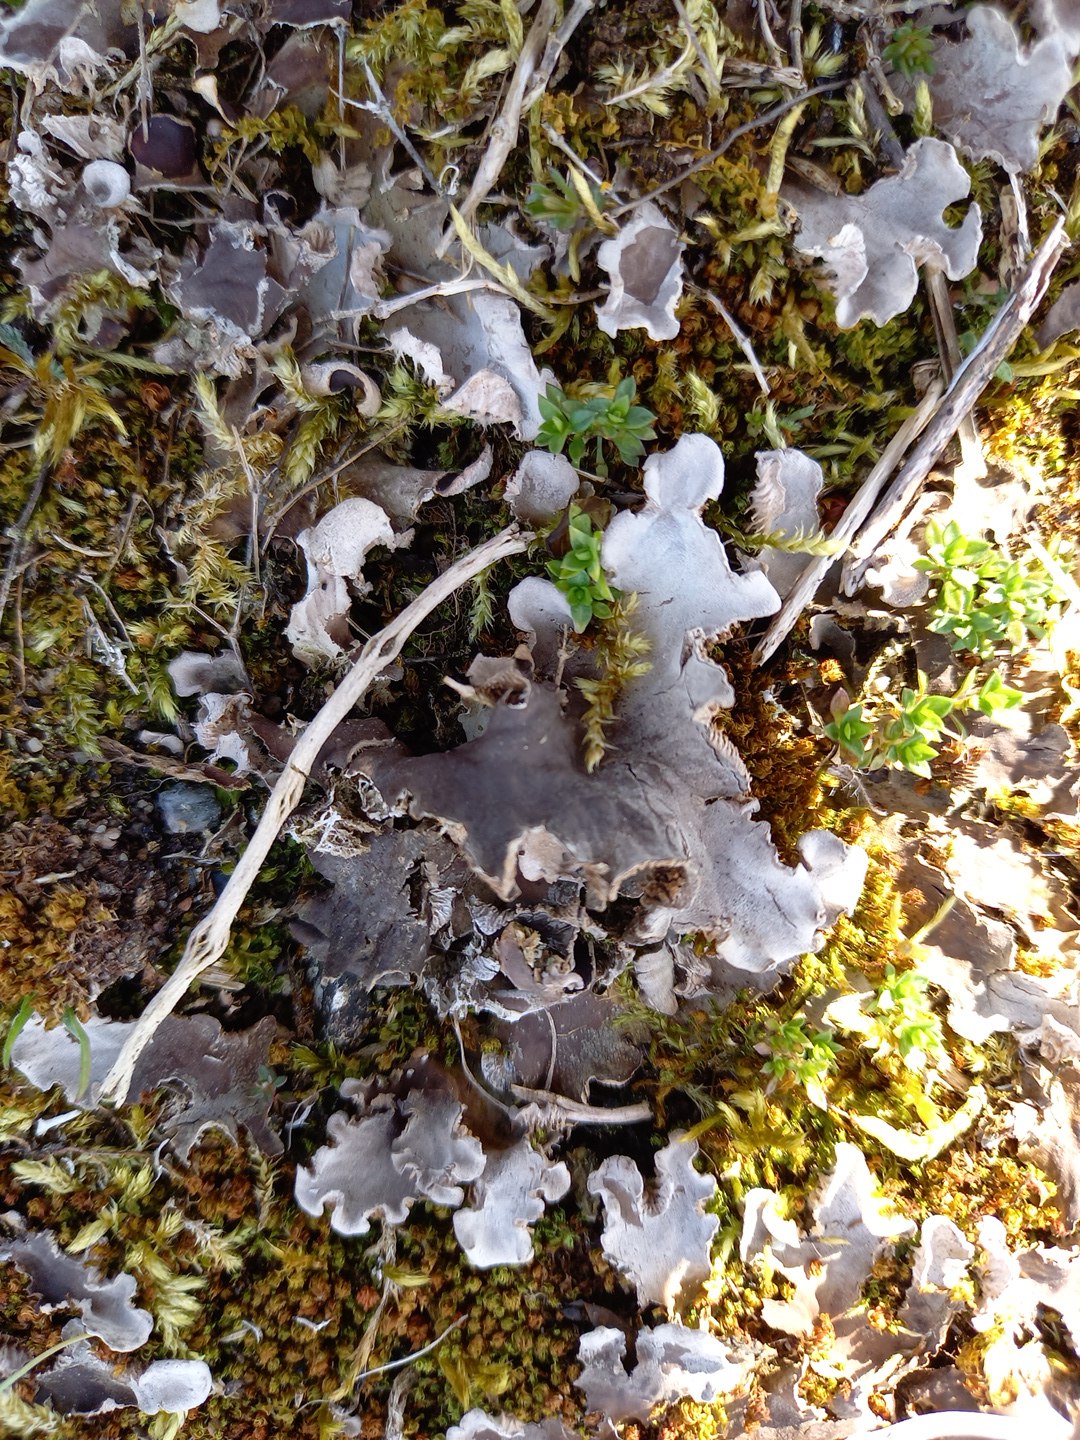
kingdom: Fungi
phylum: Ascomycota
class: Lecanoromycetes
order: Peltigerales
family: Peltigeraceae
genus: Peltigera
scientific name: Peltigera membranacea
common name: tynd skjoldlav
